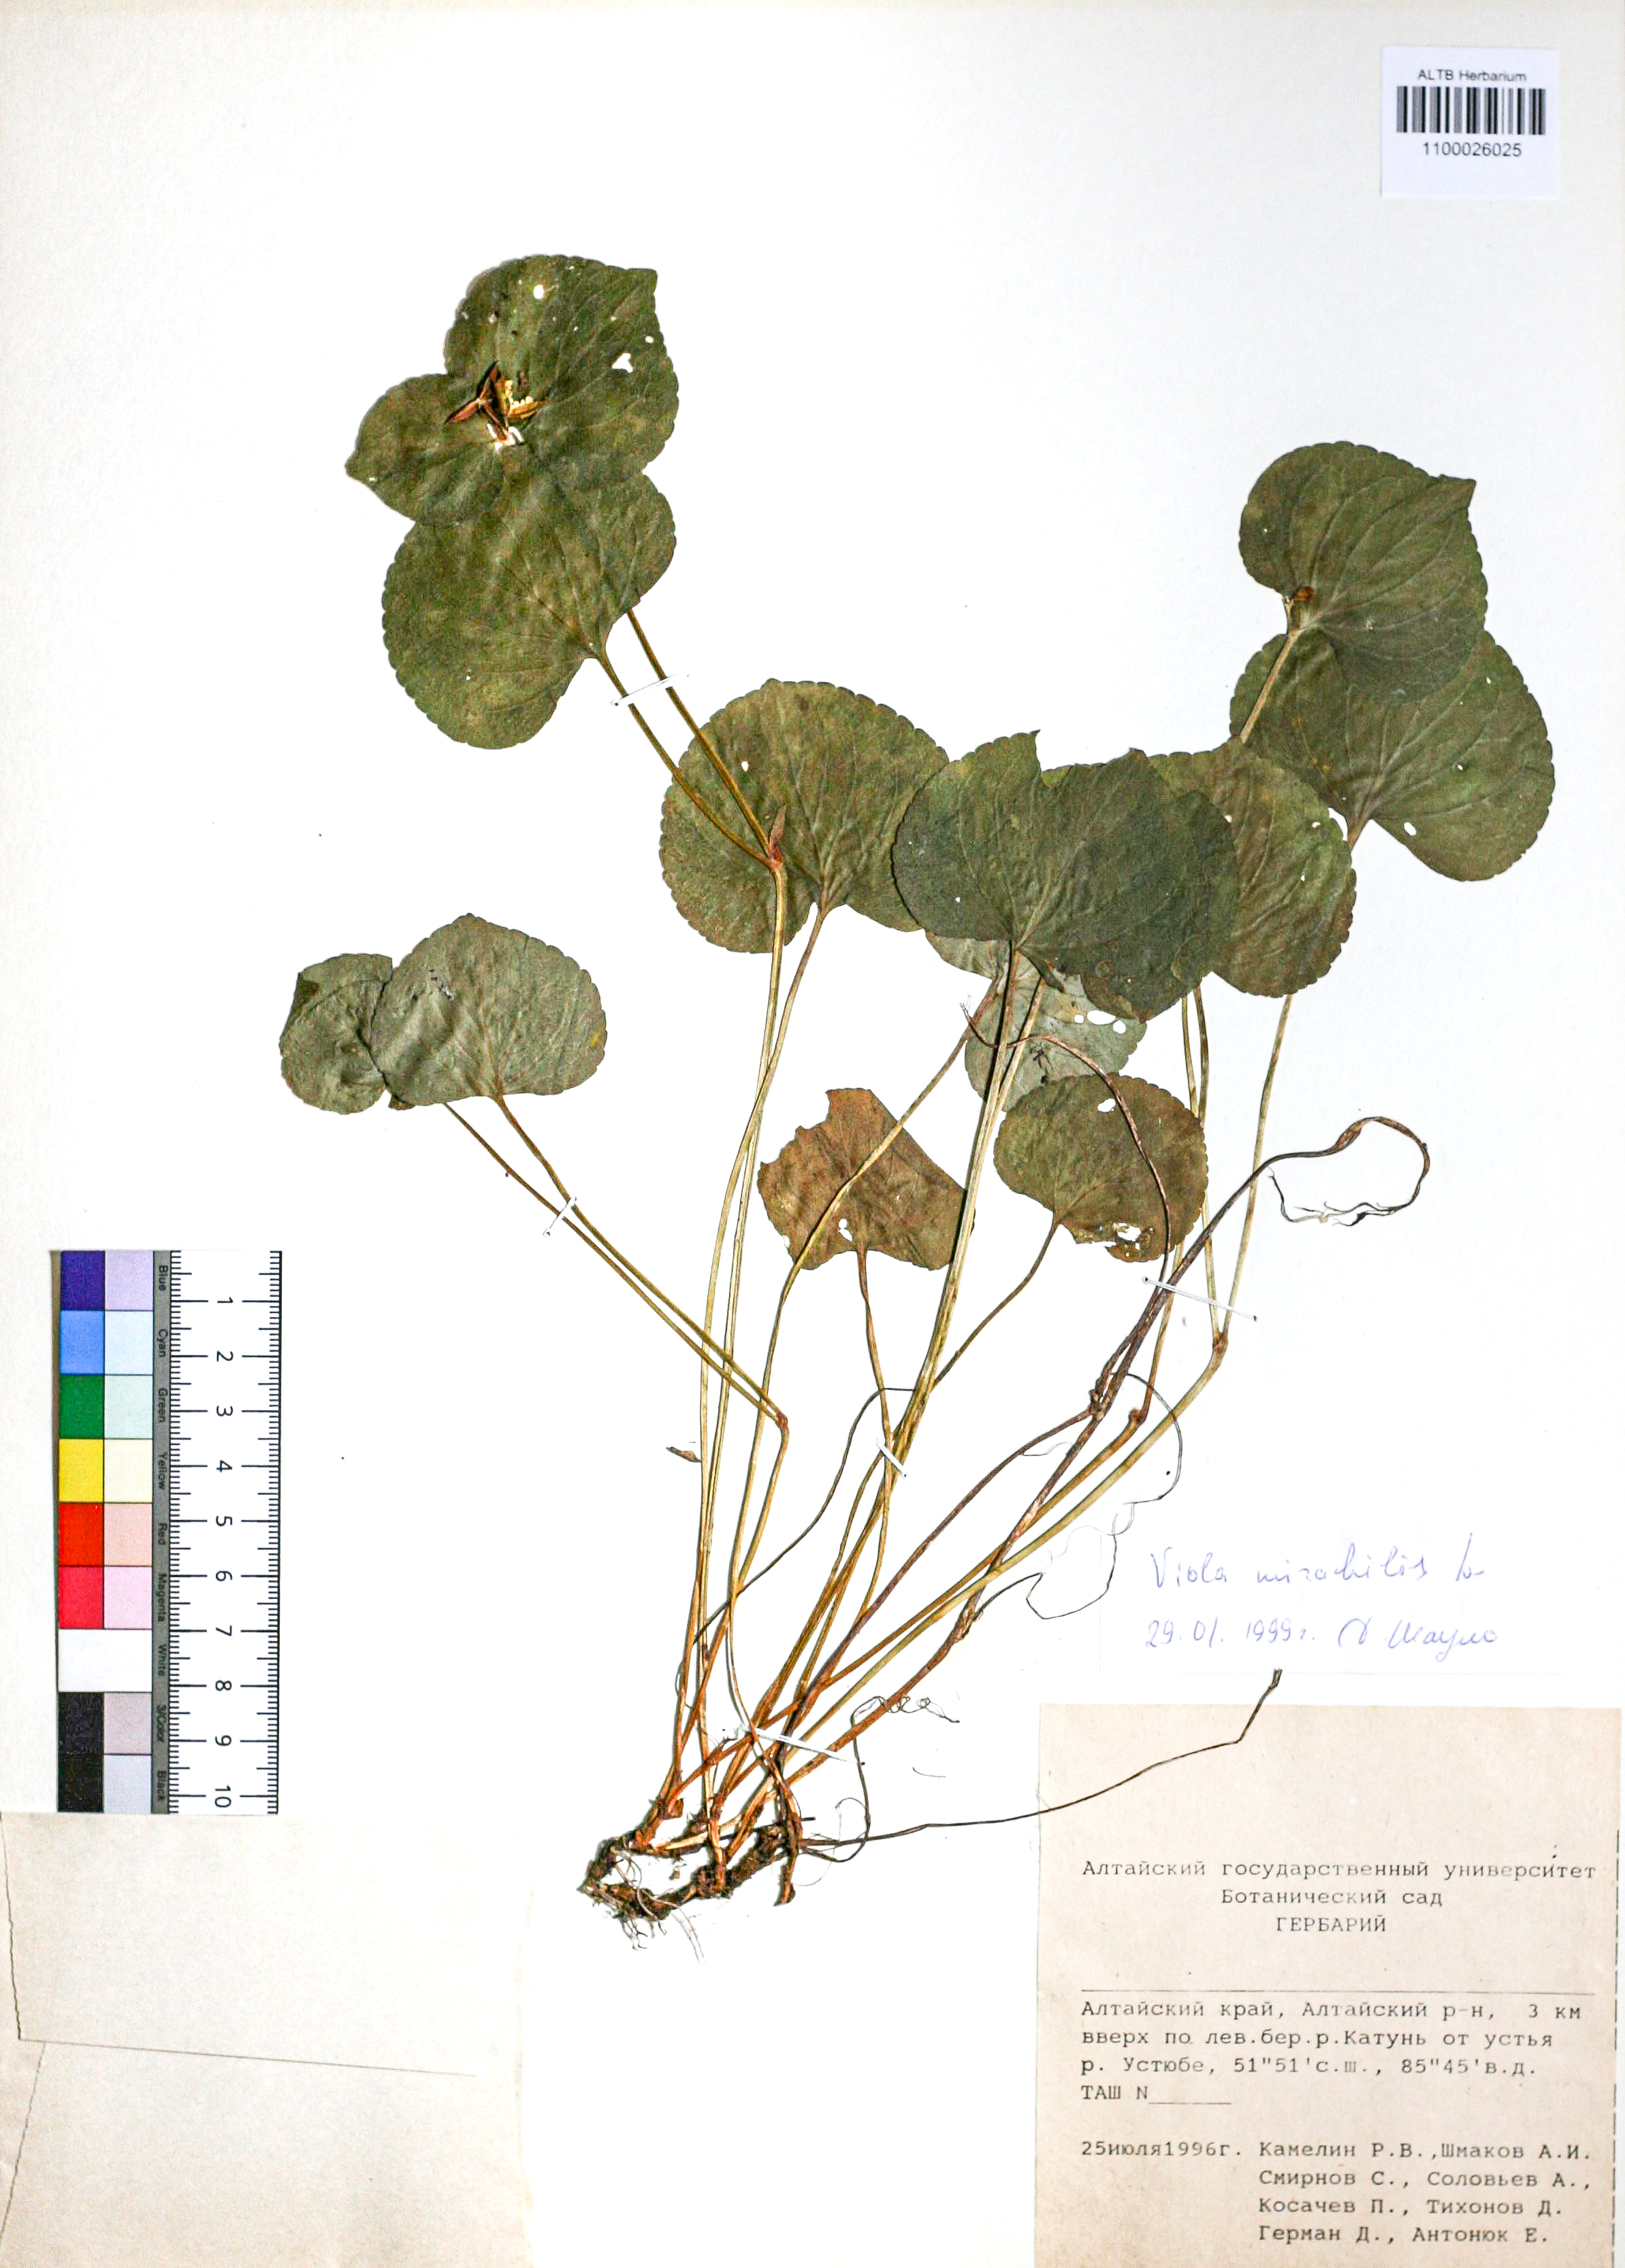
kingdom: Plantae
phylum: Tracheophyta
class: Magnoliopsida
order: Malpighiales
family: Violaceae
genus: Viola
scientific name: Viola mirabilis
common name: Wonder violet
